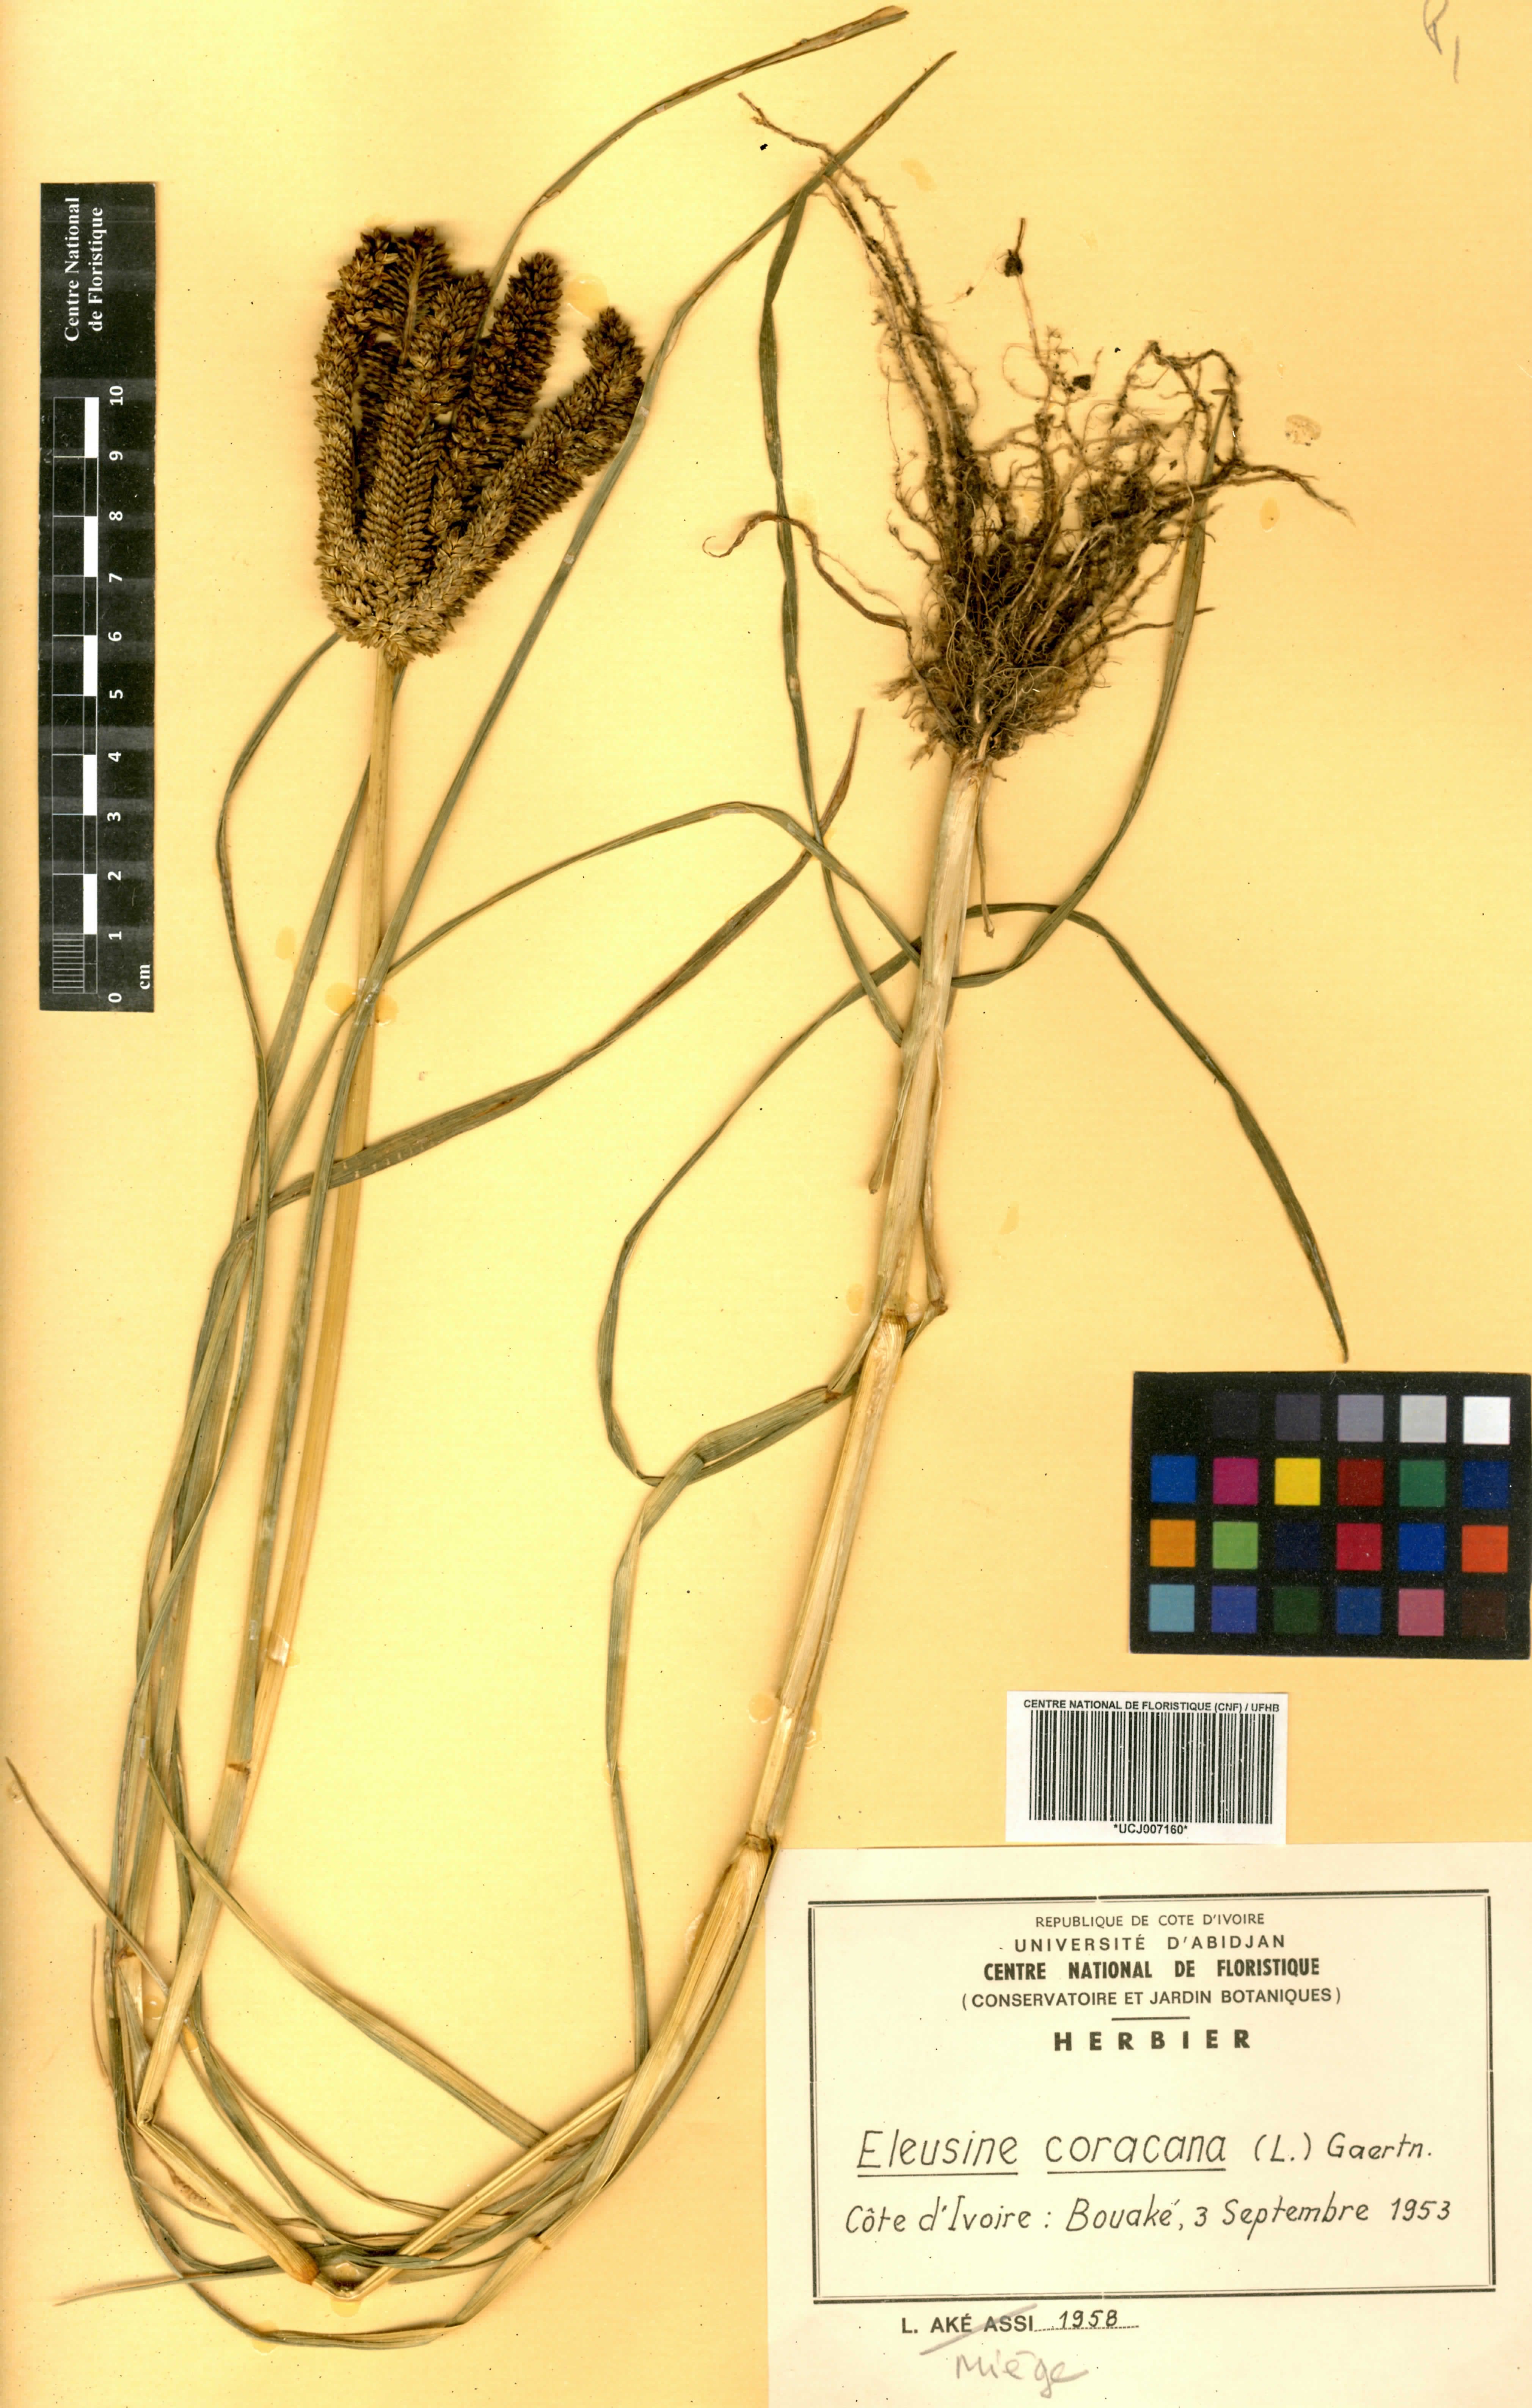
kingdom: Plantae
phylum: Tracheophyta
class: Liliopsida
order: Poales
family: Poaceae
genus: Eleusine
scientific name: Eleusine coracana
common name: Finger millet
